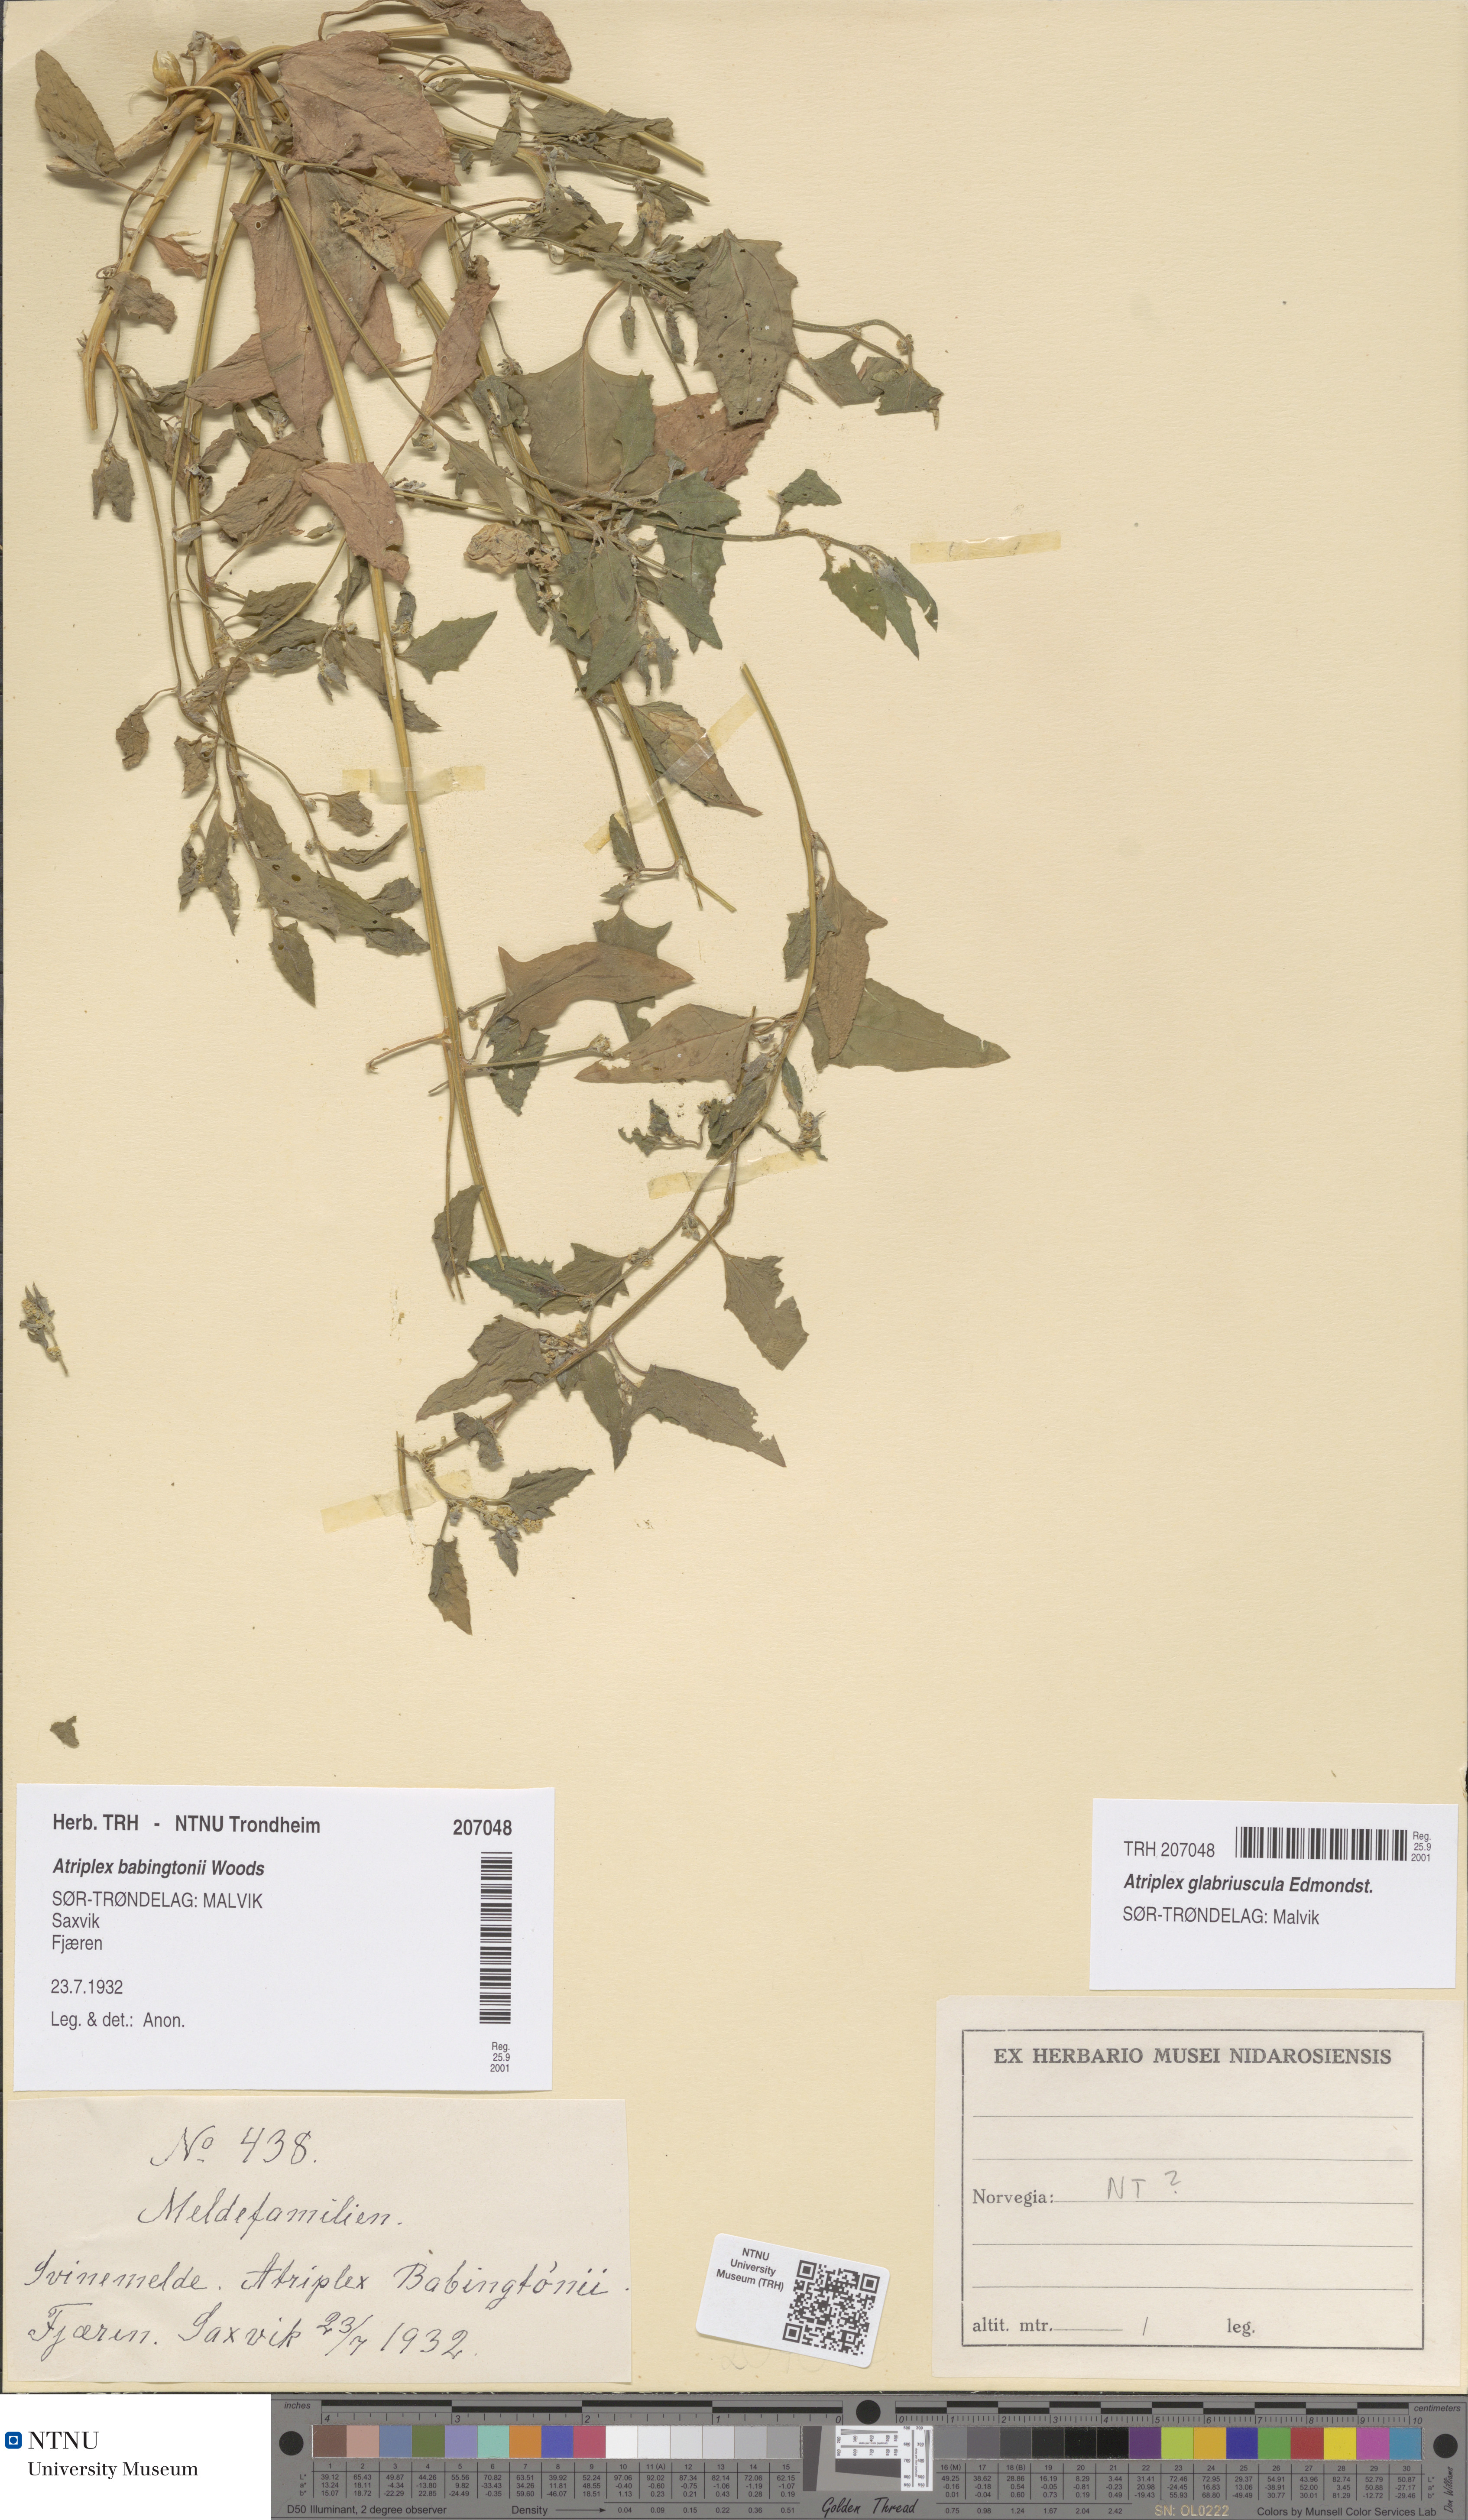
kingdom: Plantae
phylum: Tracheophyta
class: Magnoliopsida
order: Caryophyllales
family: Amaranthaceae
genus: Atriplex
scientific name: Atriplex glabriuscula
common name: Babington's orache
